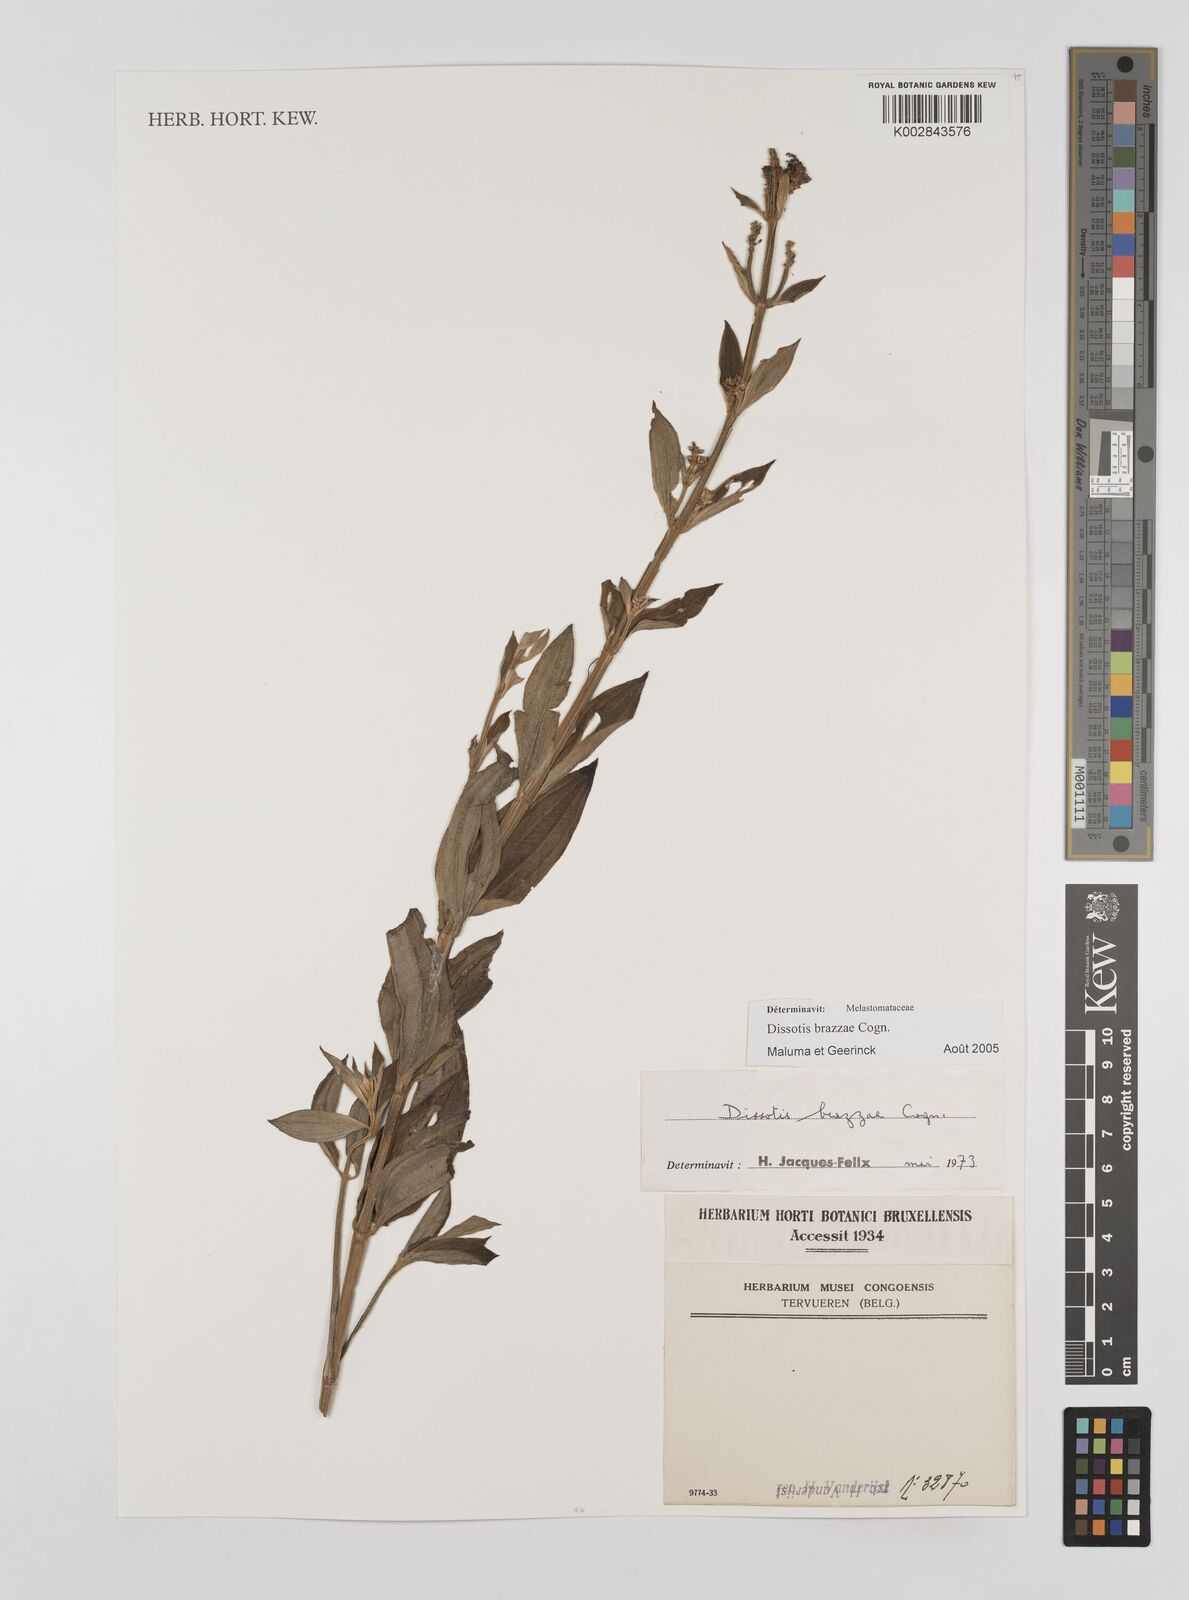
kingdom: Plantae
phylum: Tracheophyta
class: Magnoliopsida
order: Myrtales
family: Melastomataceae
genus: Dupineta
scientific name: Dupineta brazzae
